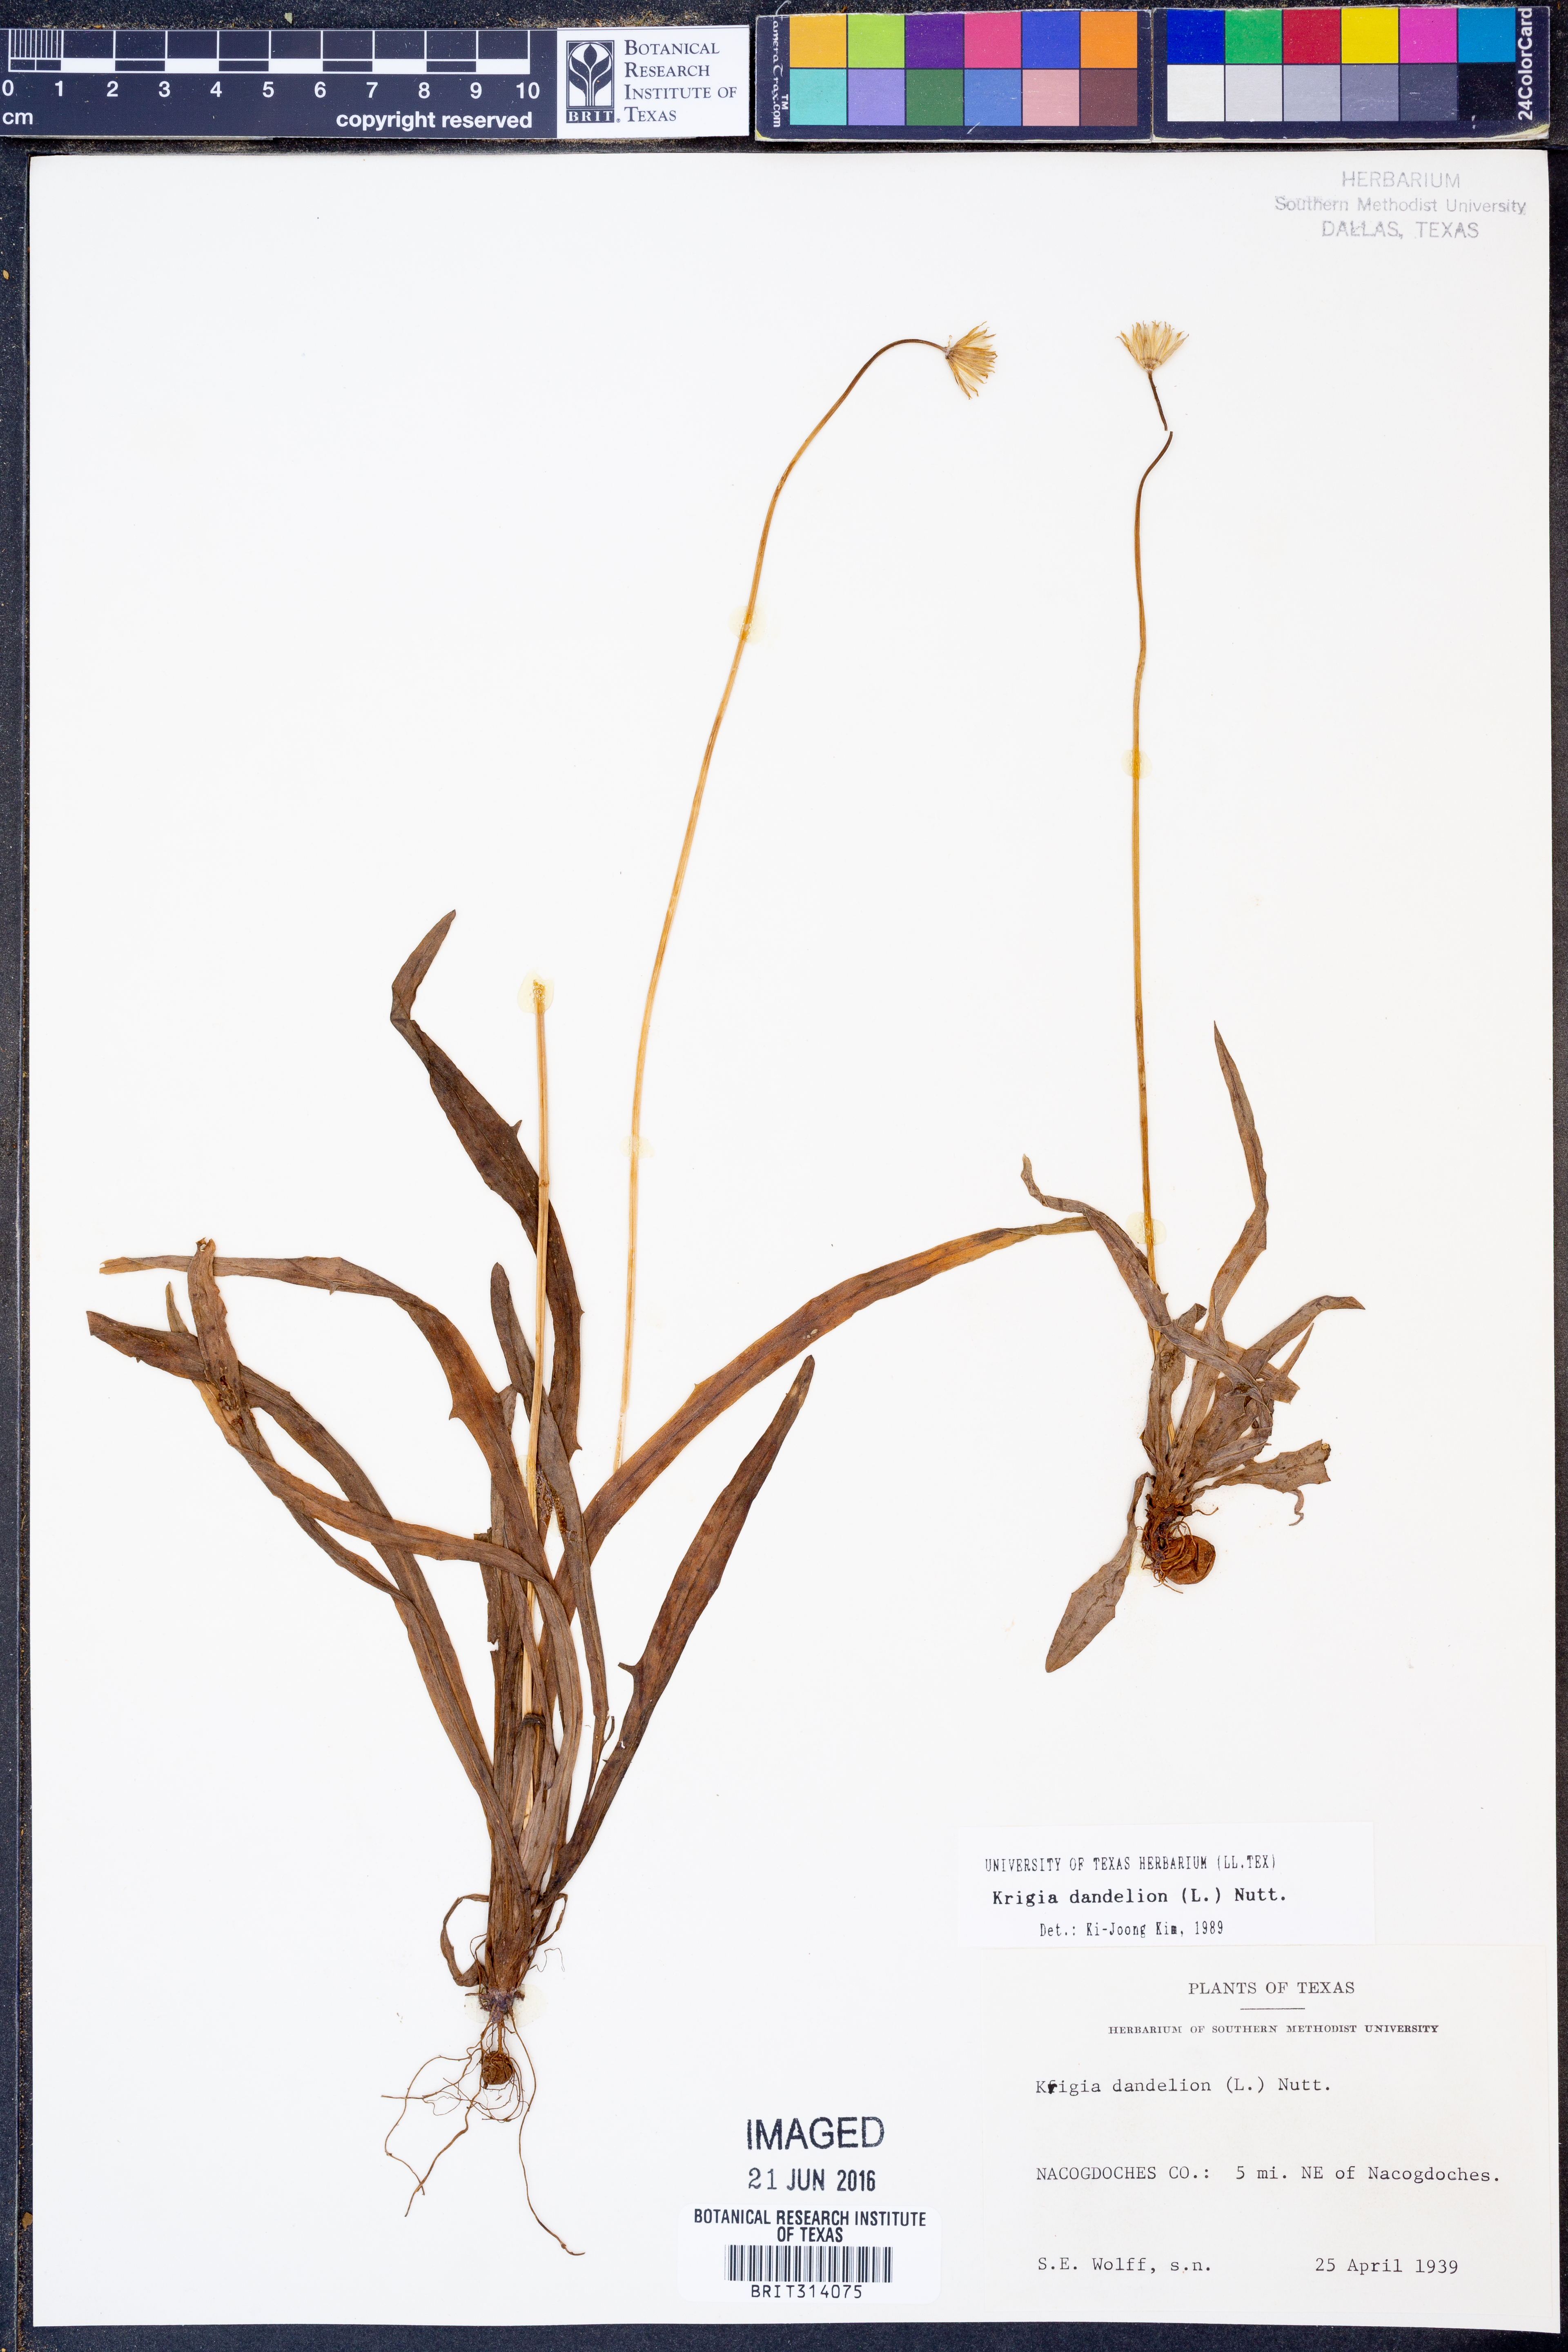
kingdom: Plantae
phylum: Tracheophyta
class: Magnoliopsida
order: Asterales
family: Asteraceae
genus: Krigia
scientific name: Krigia dandelion
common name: Colonial dwarf-dandelion
